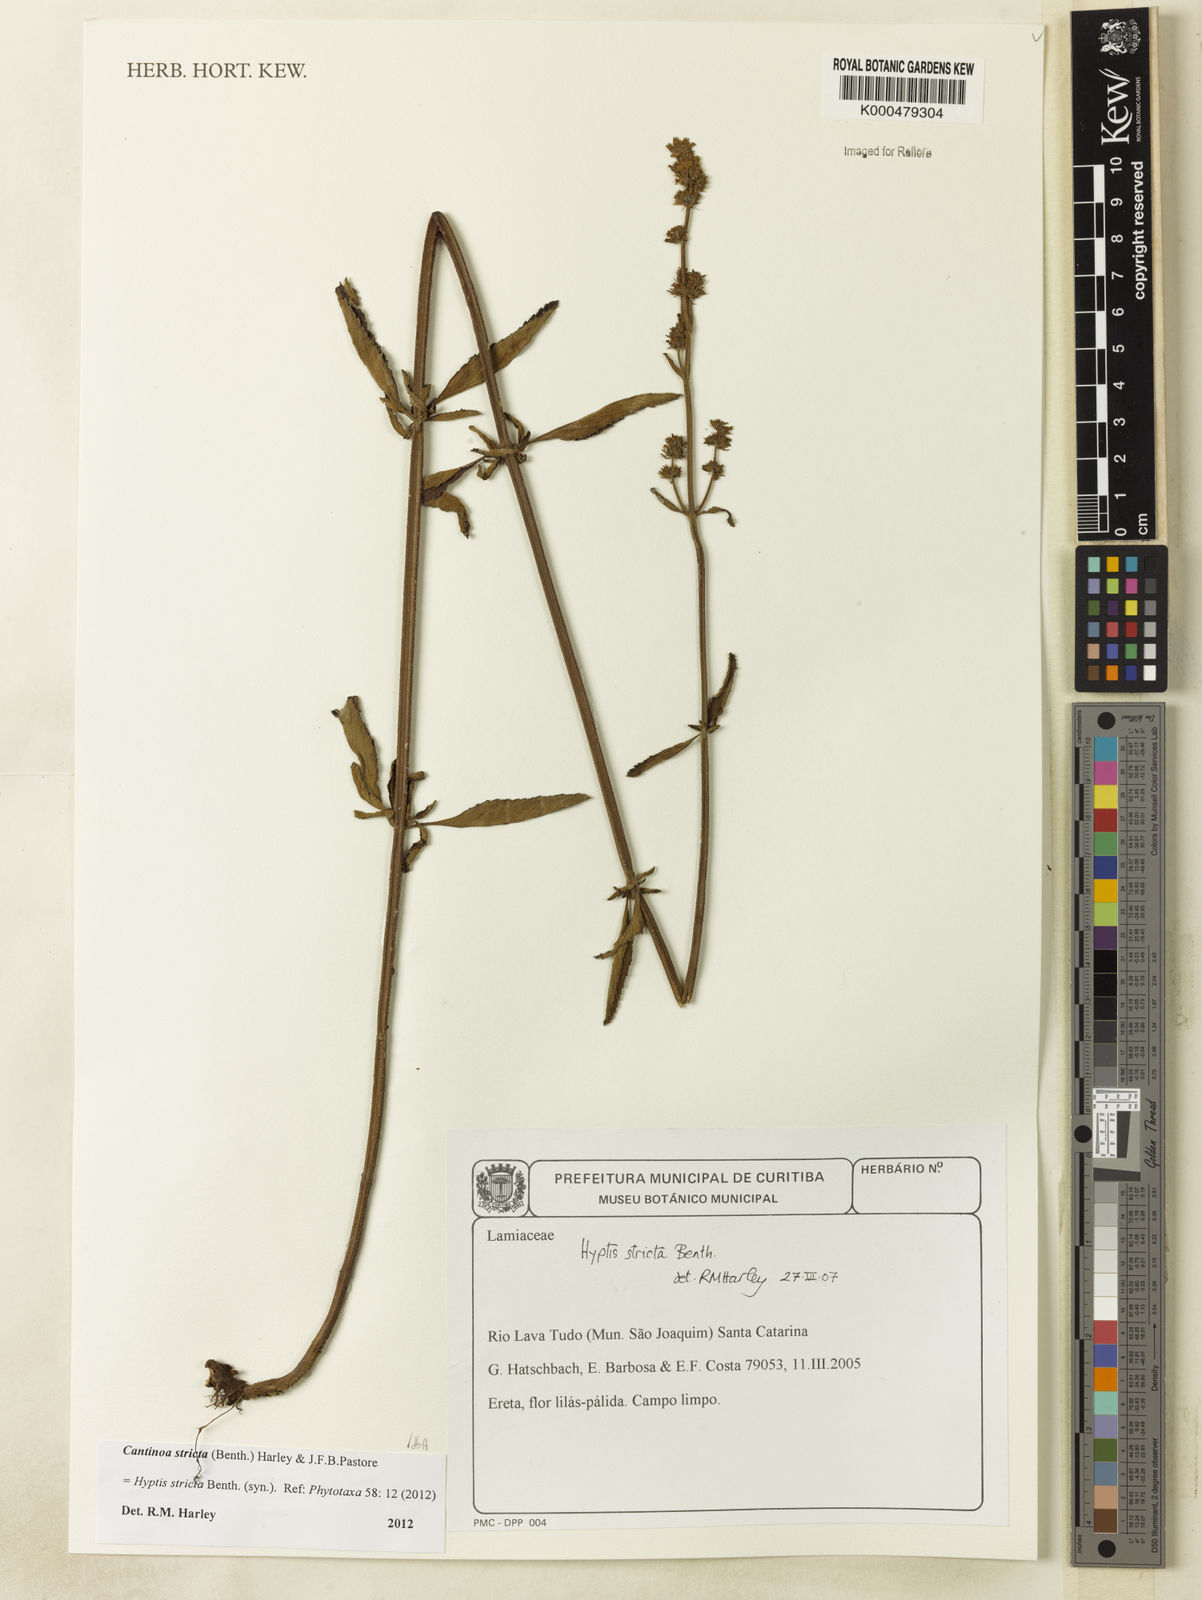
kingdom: Plantae
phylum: Tracheophyta
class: Magnoliopsida
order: Lamiales
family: Lamiaceae
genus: Cantinoa
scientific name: Cantinoa stricta
